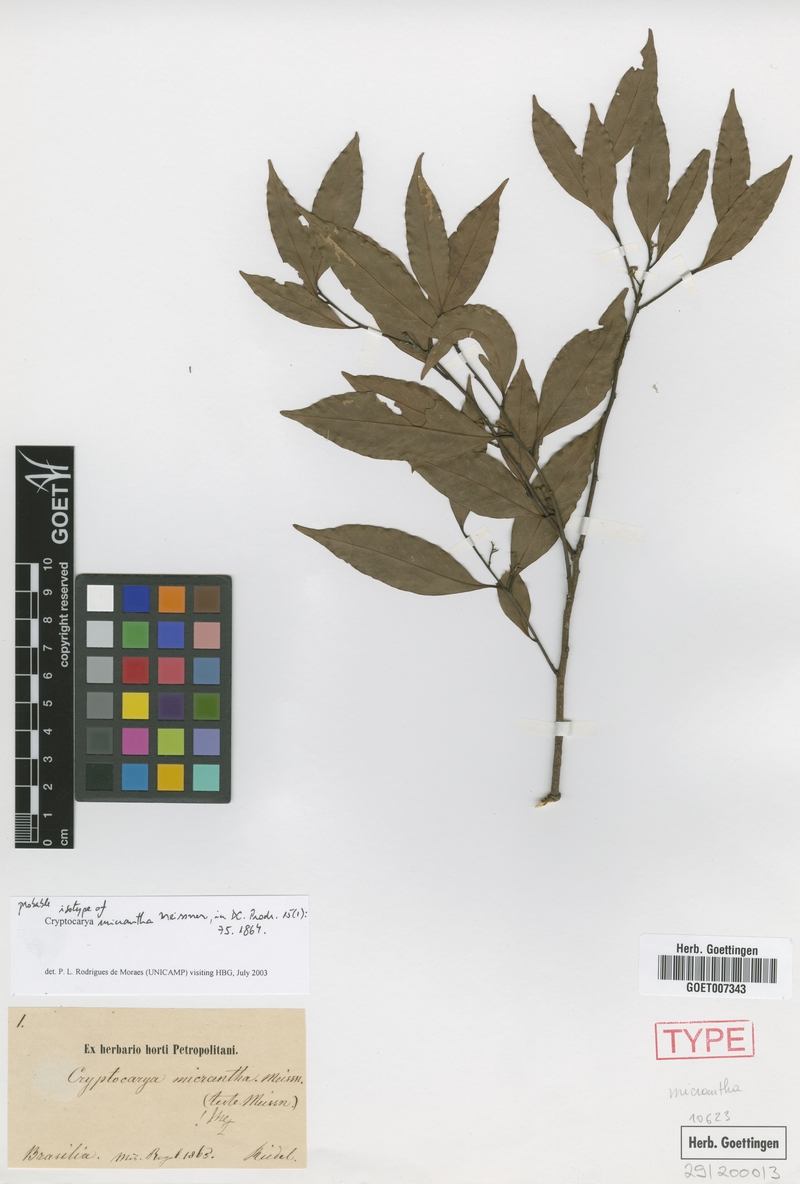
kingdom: Plantae
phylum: Tracheophyta
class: Magnoliopsida
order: Laurales
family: Lauraceae
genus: Cryptocarya
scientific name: Cryptocarya micrantha
